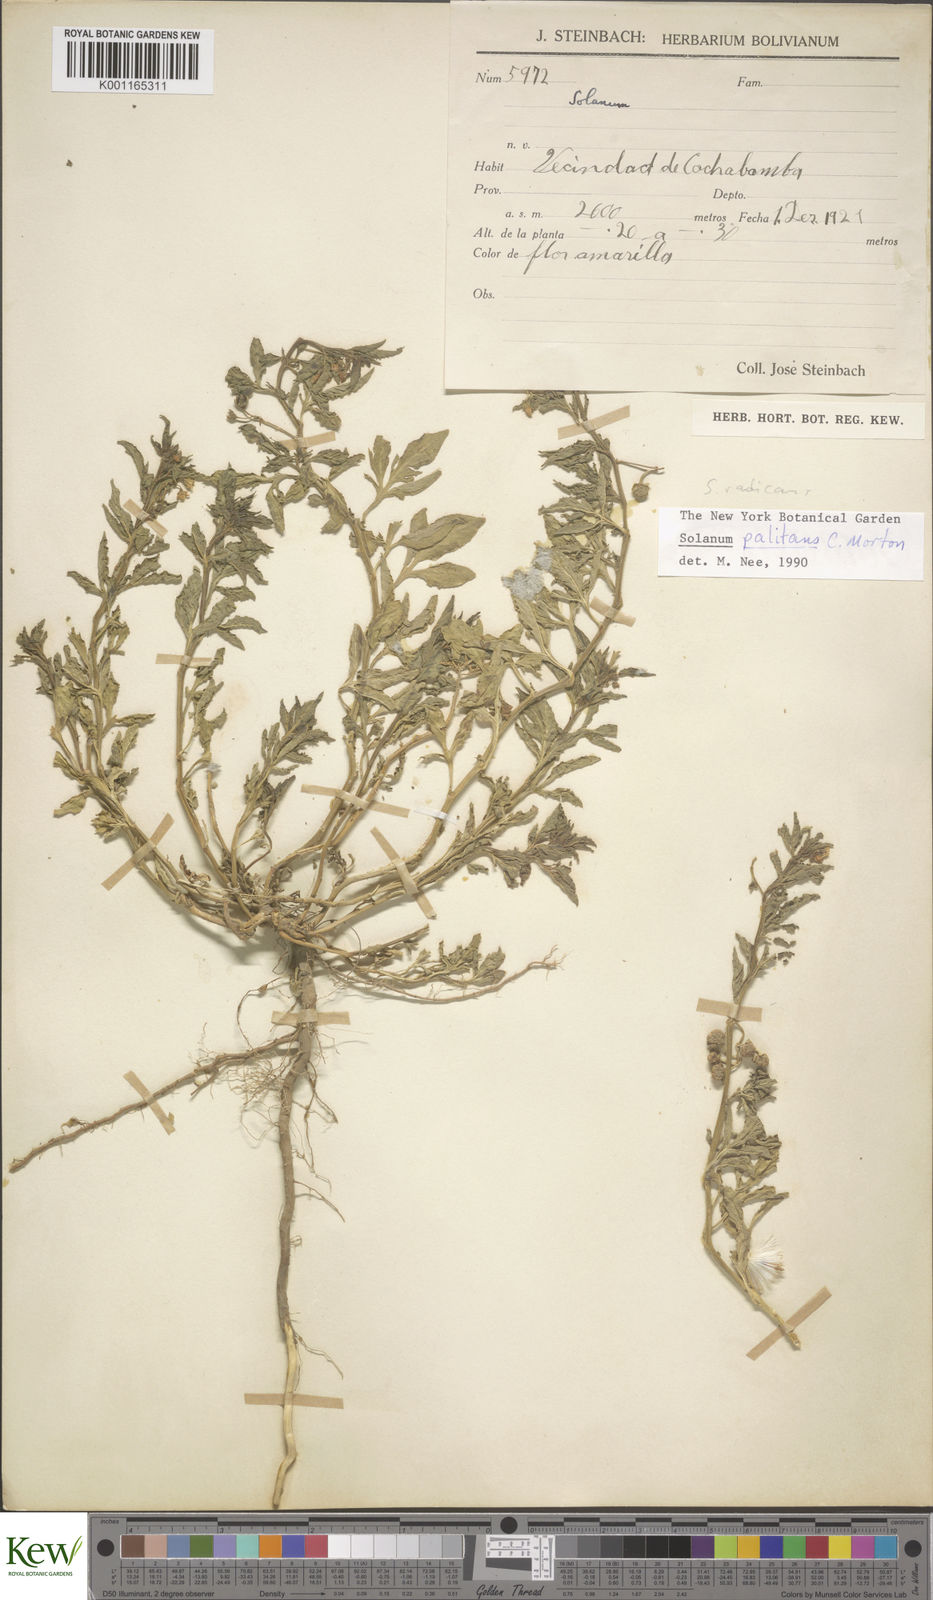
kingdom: Plantae
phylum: Tracheophyta
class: Magnoliopsida
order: Solanales
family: Solanaceae
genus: Solanum
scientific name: Solanum palitans
